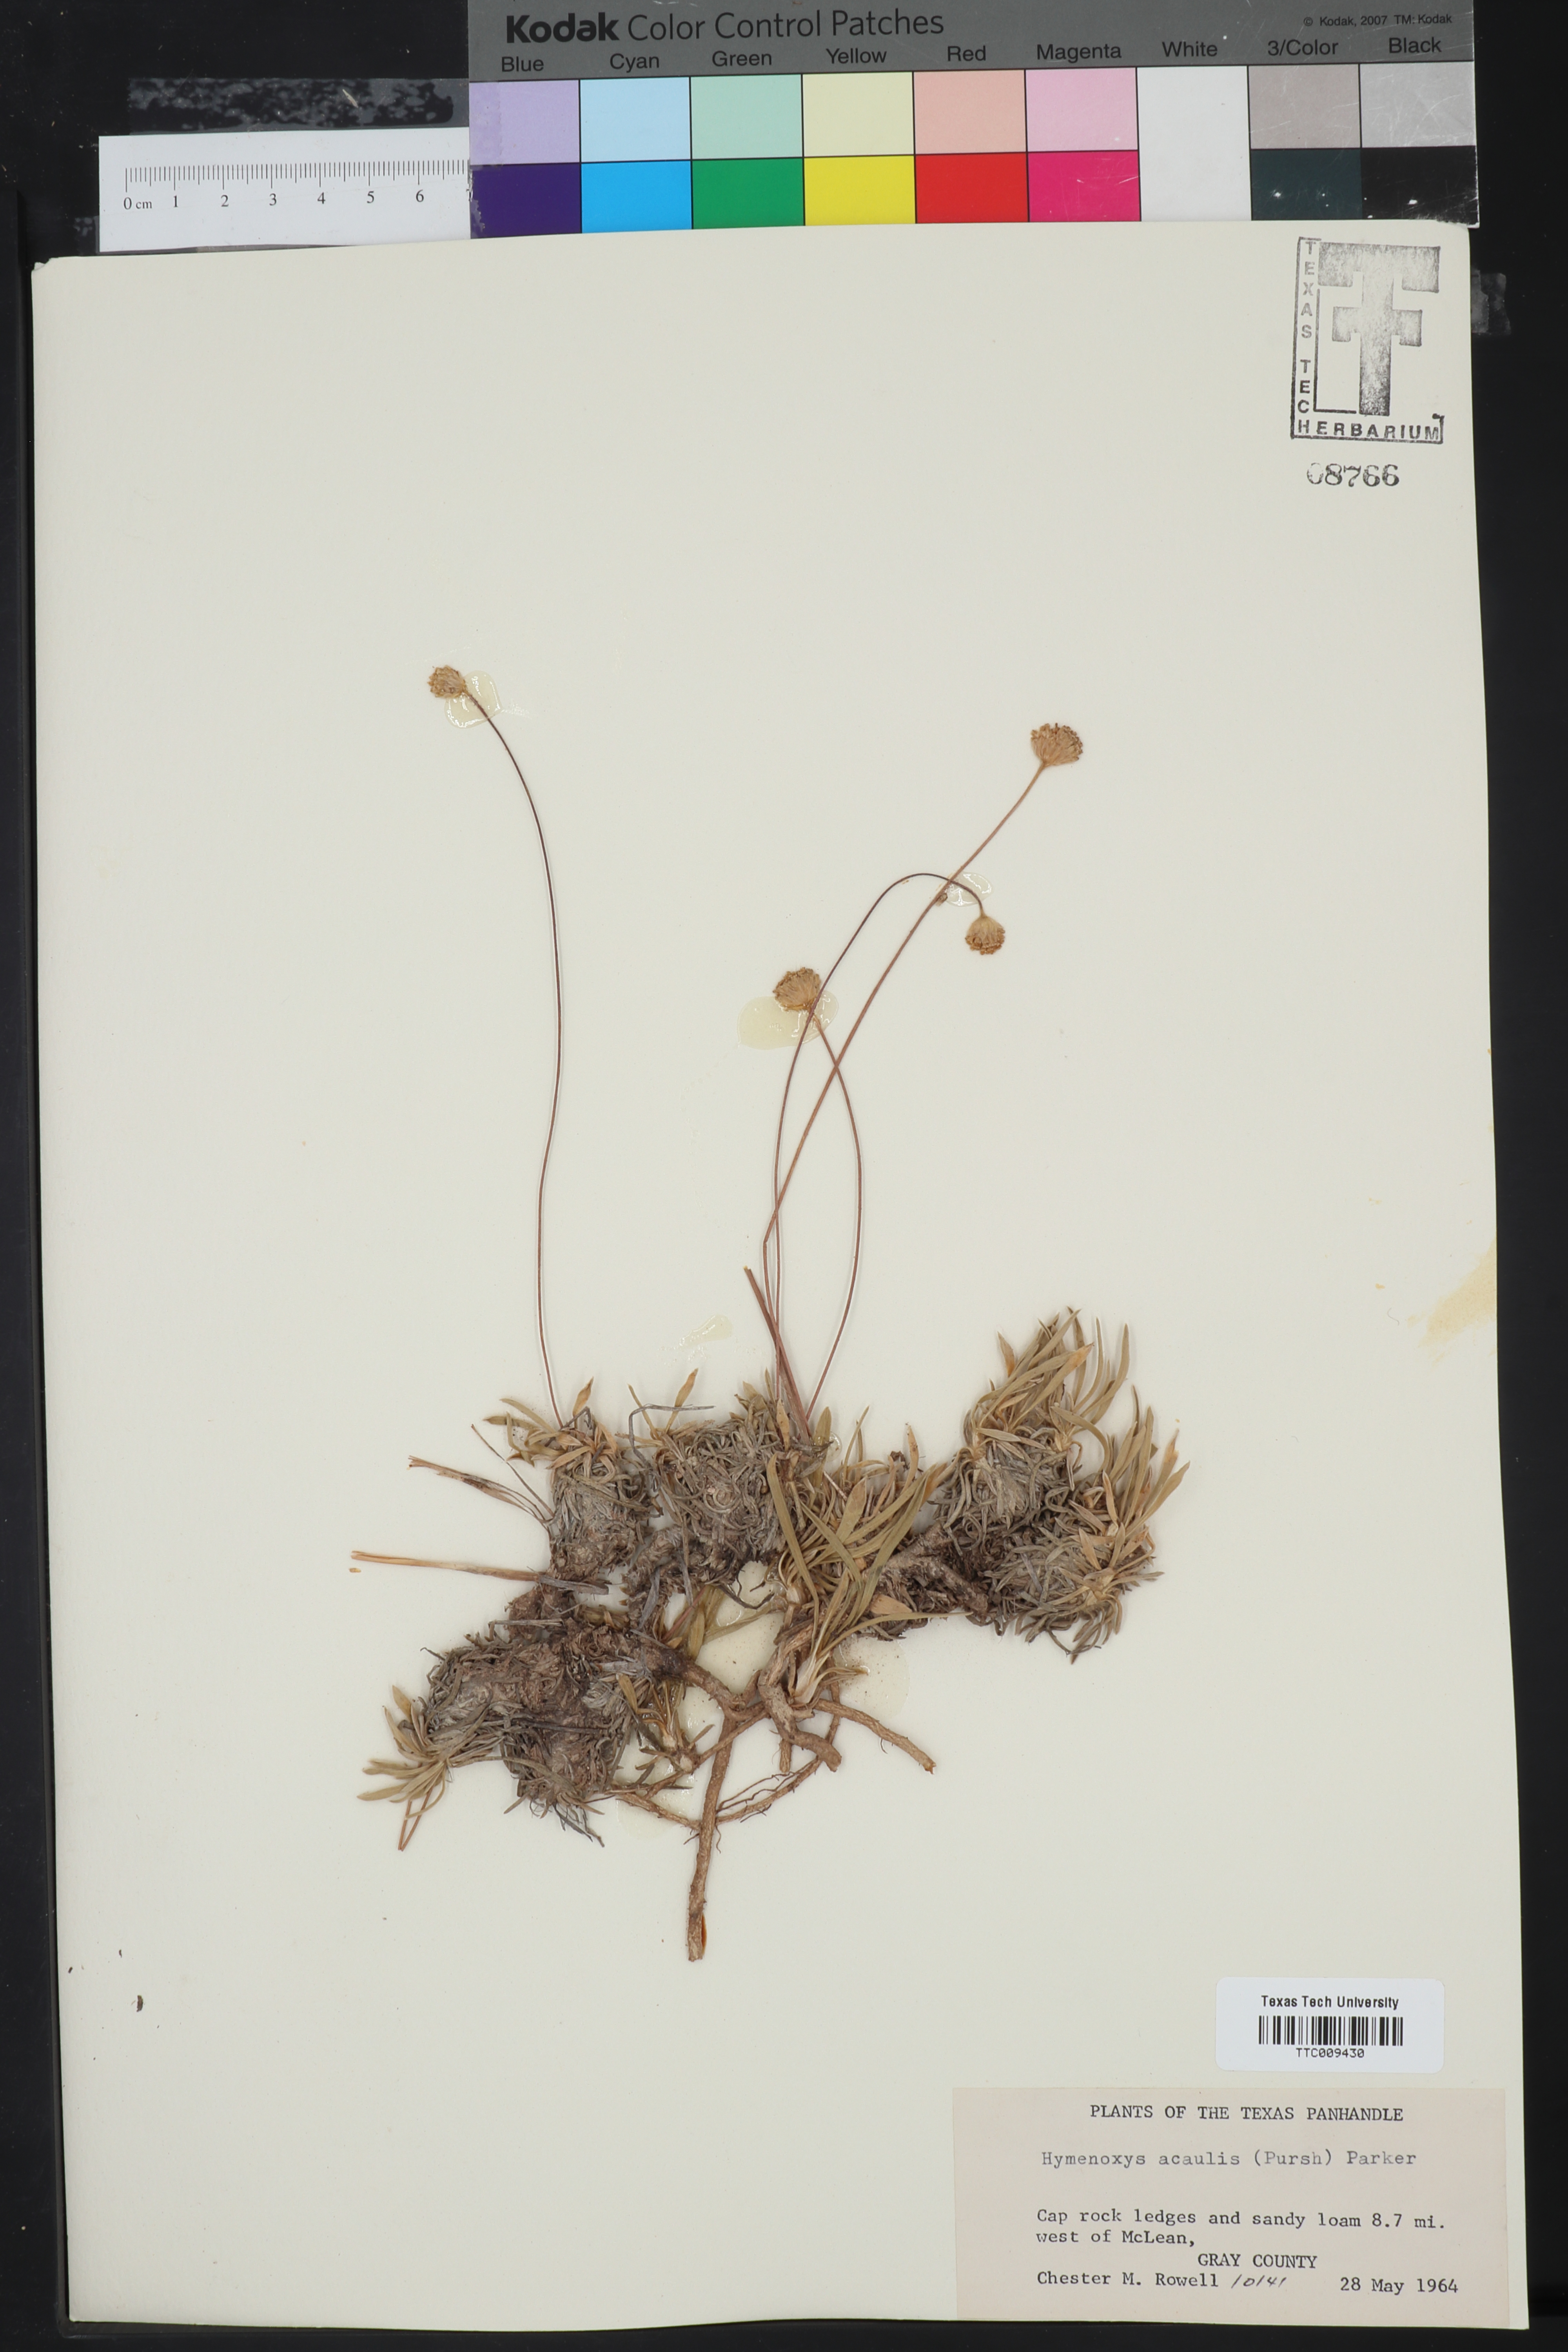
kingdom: Plantae
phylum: Tracheophyta
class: Magnoliopsida
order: Asterales
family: Asteraceae
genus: Tetraneuris
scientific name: Tetraneuris acaulis
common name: Butte marigold
